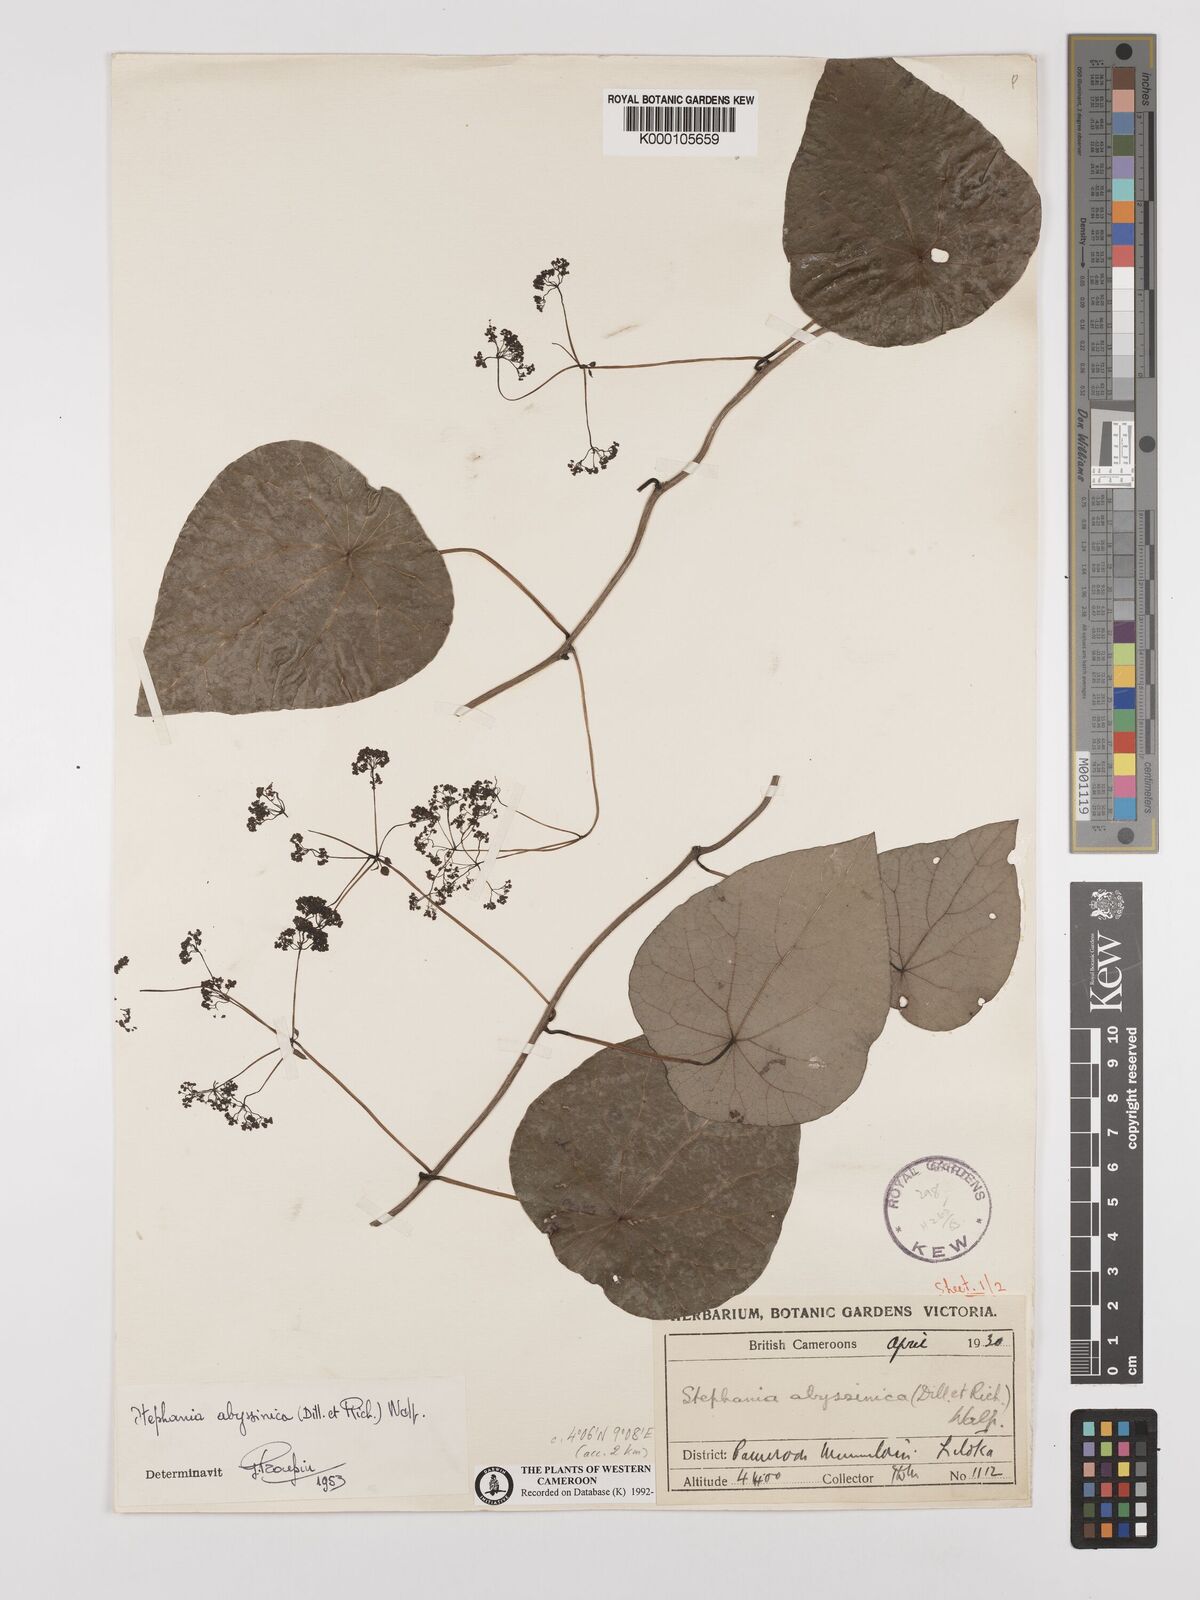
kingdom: Plantae
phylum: Tracheophyta
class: Magnoliopsida
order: Ranunculales
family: Menispermaceae
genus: Stephania
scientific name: Stephania abyssinica
